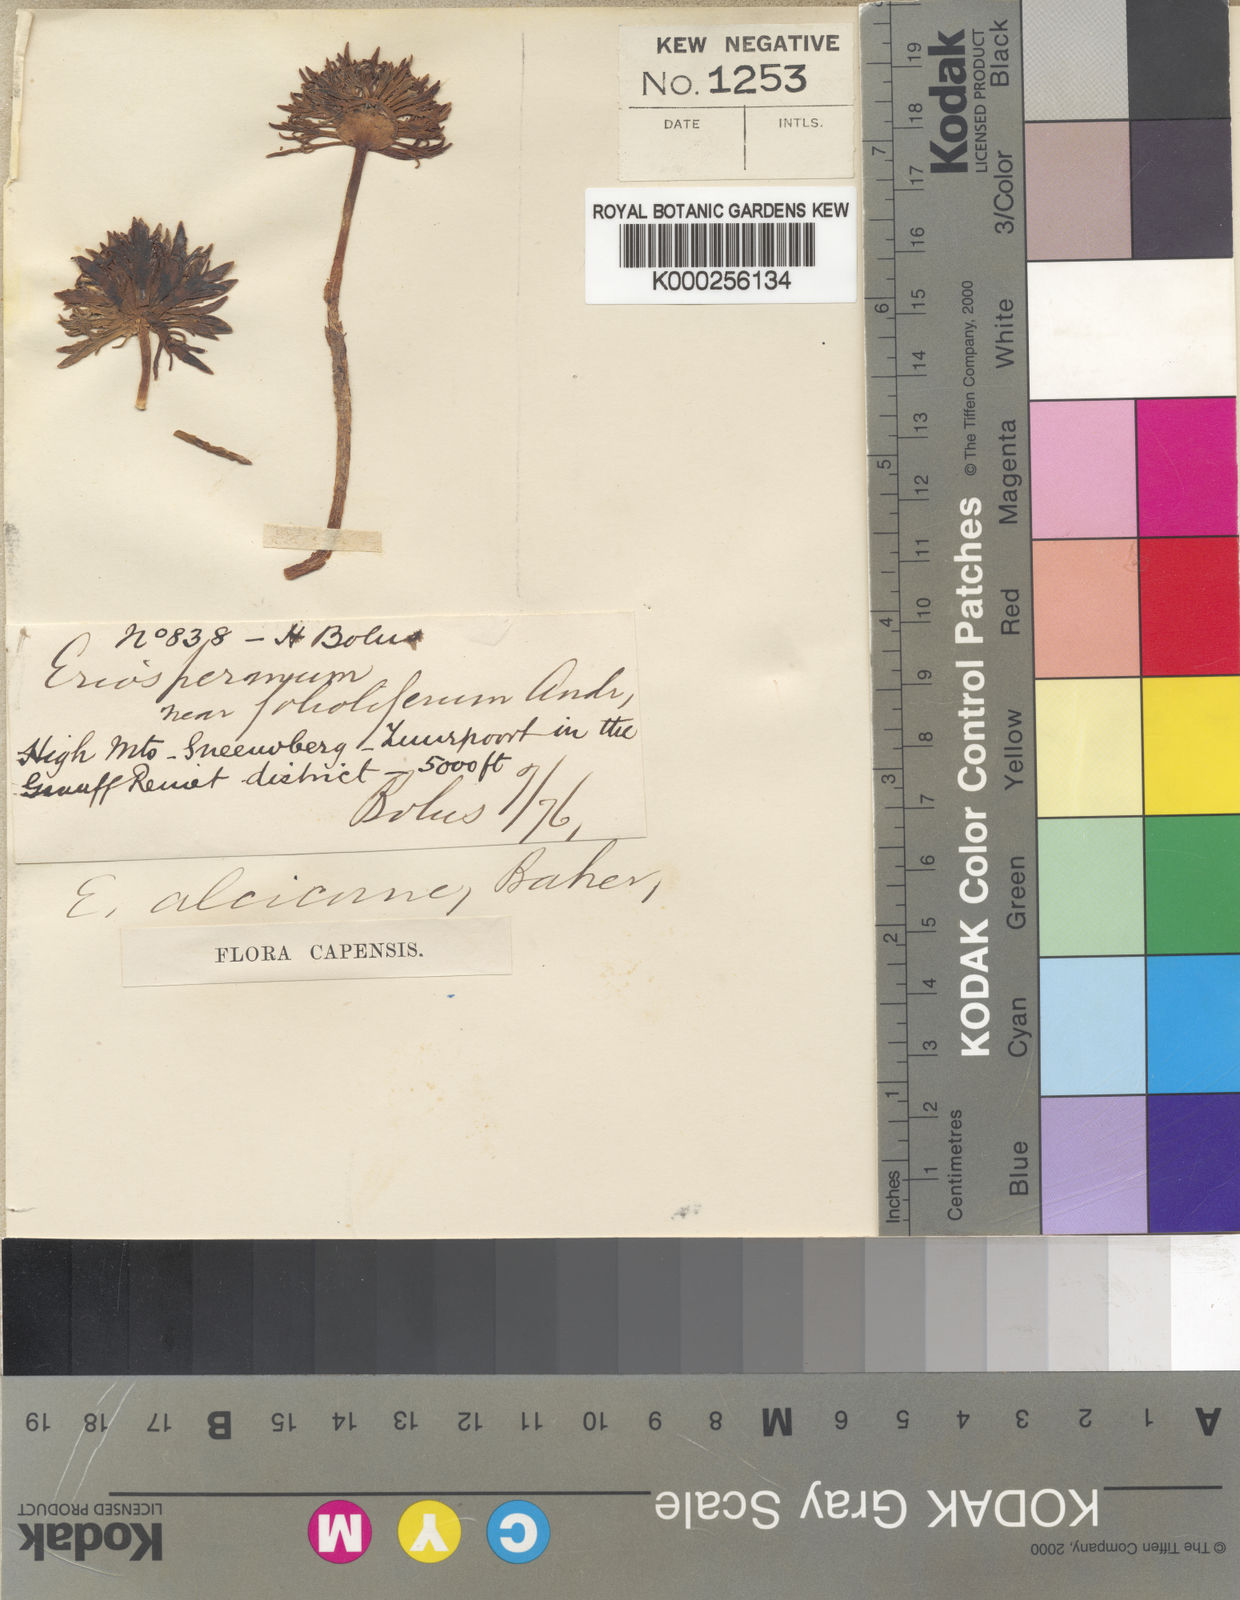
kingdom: Plantae
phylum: Tracheophyta
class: Liliopsida
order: Asparagales
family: Asparagaceae
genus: Eriospermum
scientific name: Eriospermum alcicorne
